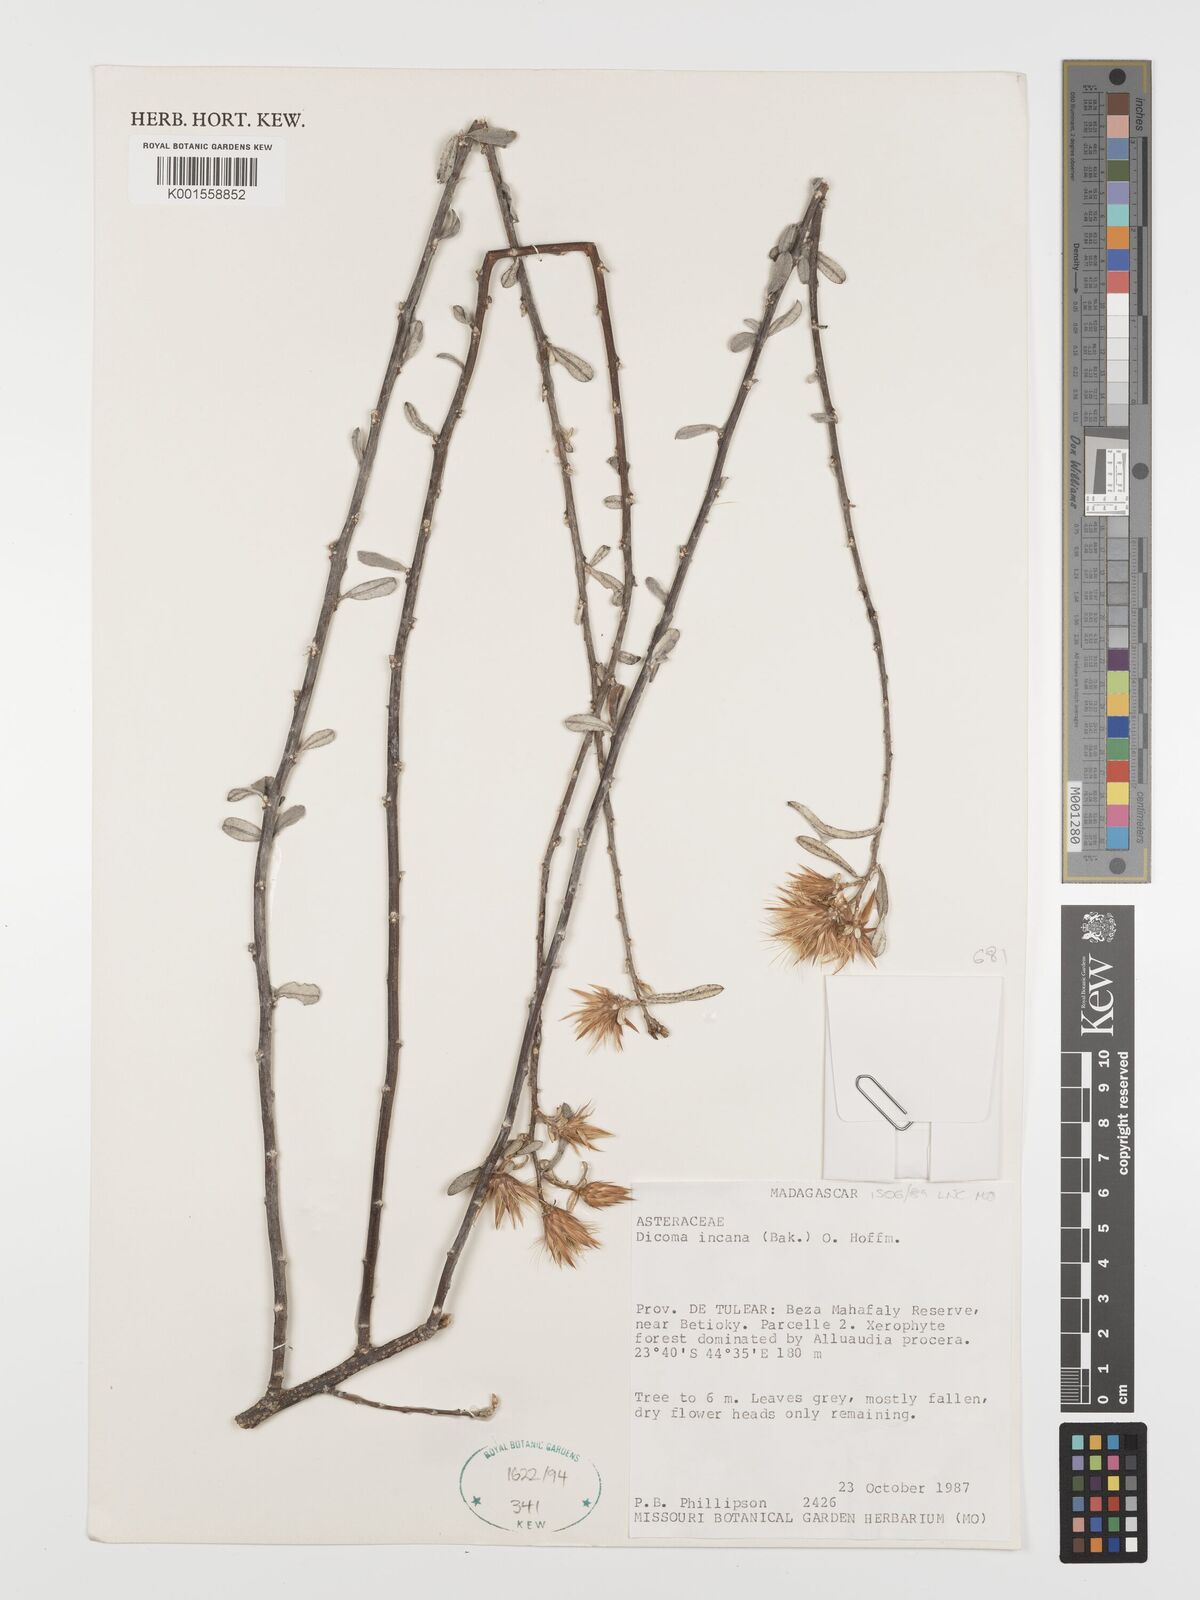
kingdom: Plantae
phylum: Tracheophyta
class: Magnoliopsida
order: Asterales
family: Asteraceae
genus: Dicoma
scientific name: Dicoma incana
